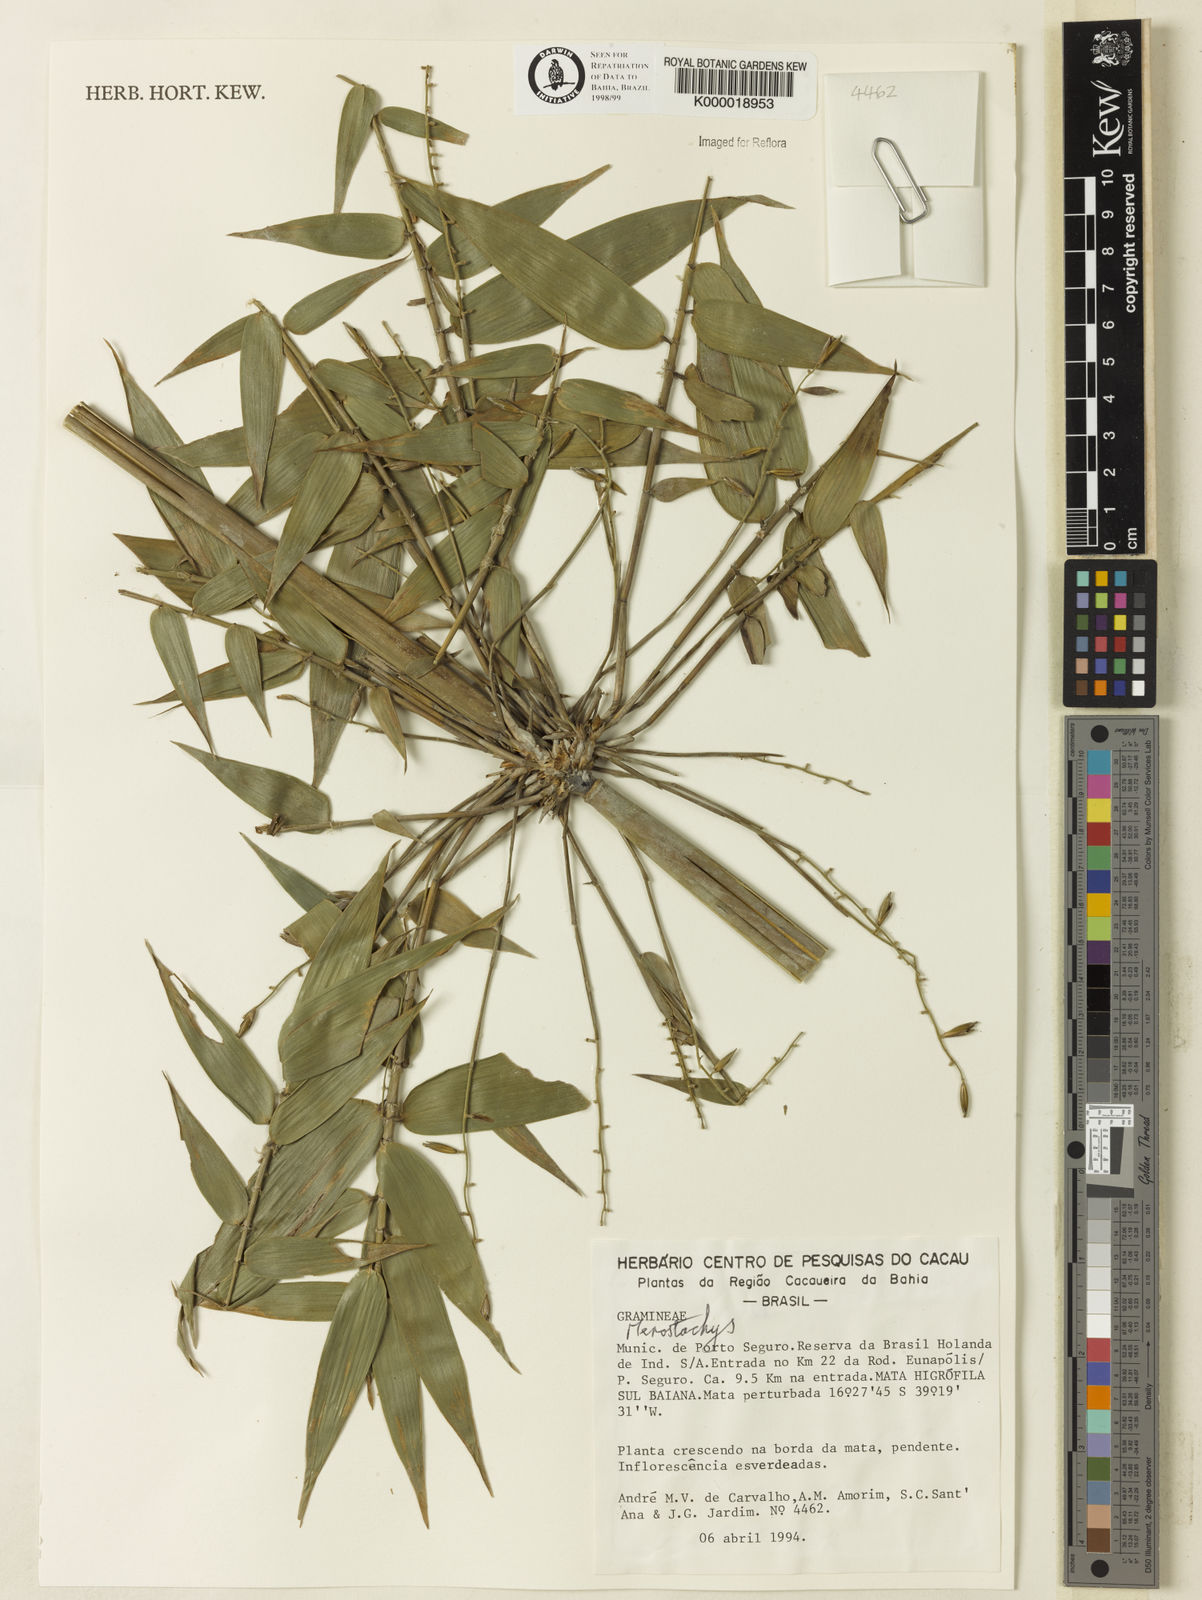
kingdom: Plantae
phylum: Tracheophyta
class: Liliopsida
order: Poales
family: Poaceae
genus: Merostachys
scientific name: Merostachys
